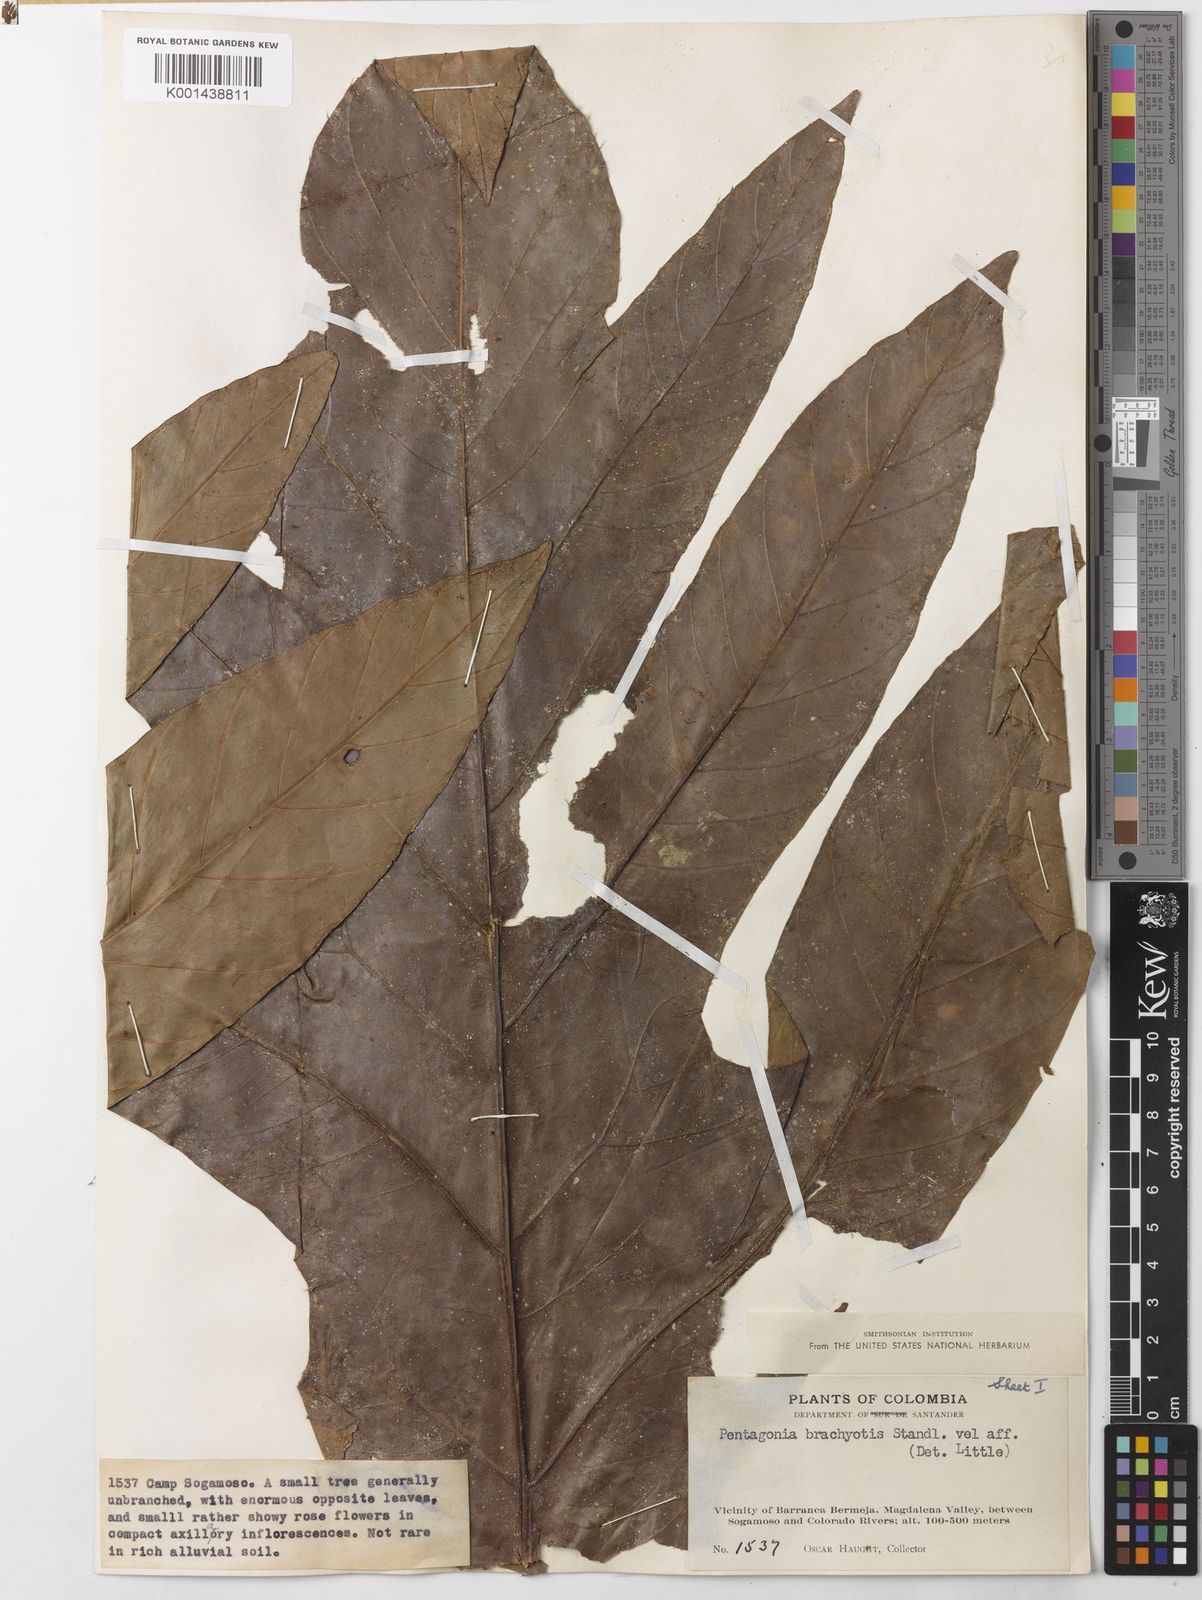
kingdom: Plantae
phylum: Tracheophyta
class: Magnoliopsida
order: Gentianales
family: Rubiaceae
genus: Pentagonia
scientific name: Pentagonia pinnatifida
